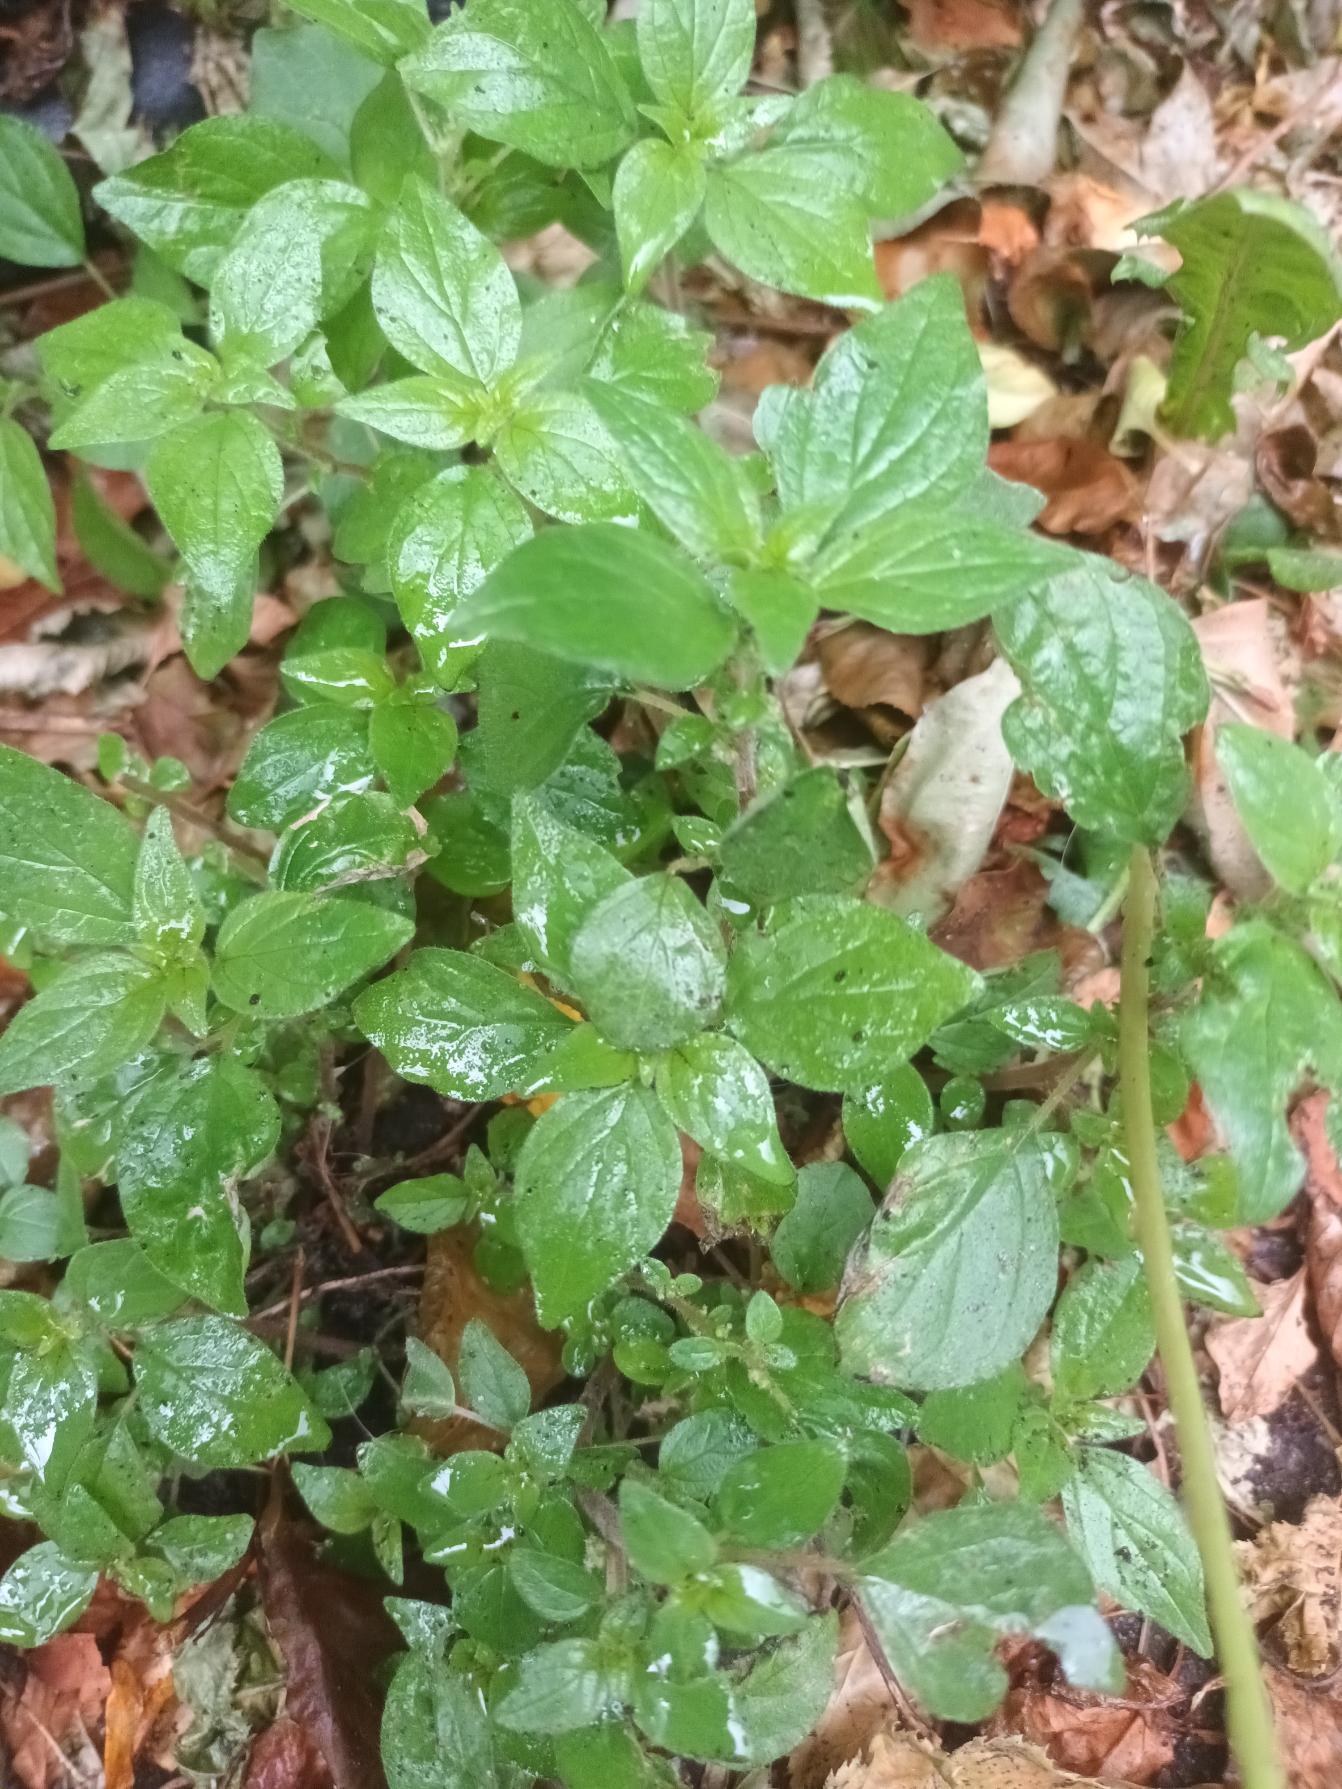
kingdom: Plantae
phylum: Tracheophyta
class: Magnoliopsida
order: Rosales
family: Urticaceae
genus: Parietaria
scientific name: Parietaria judaica
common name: Nedliggende springknap
